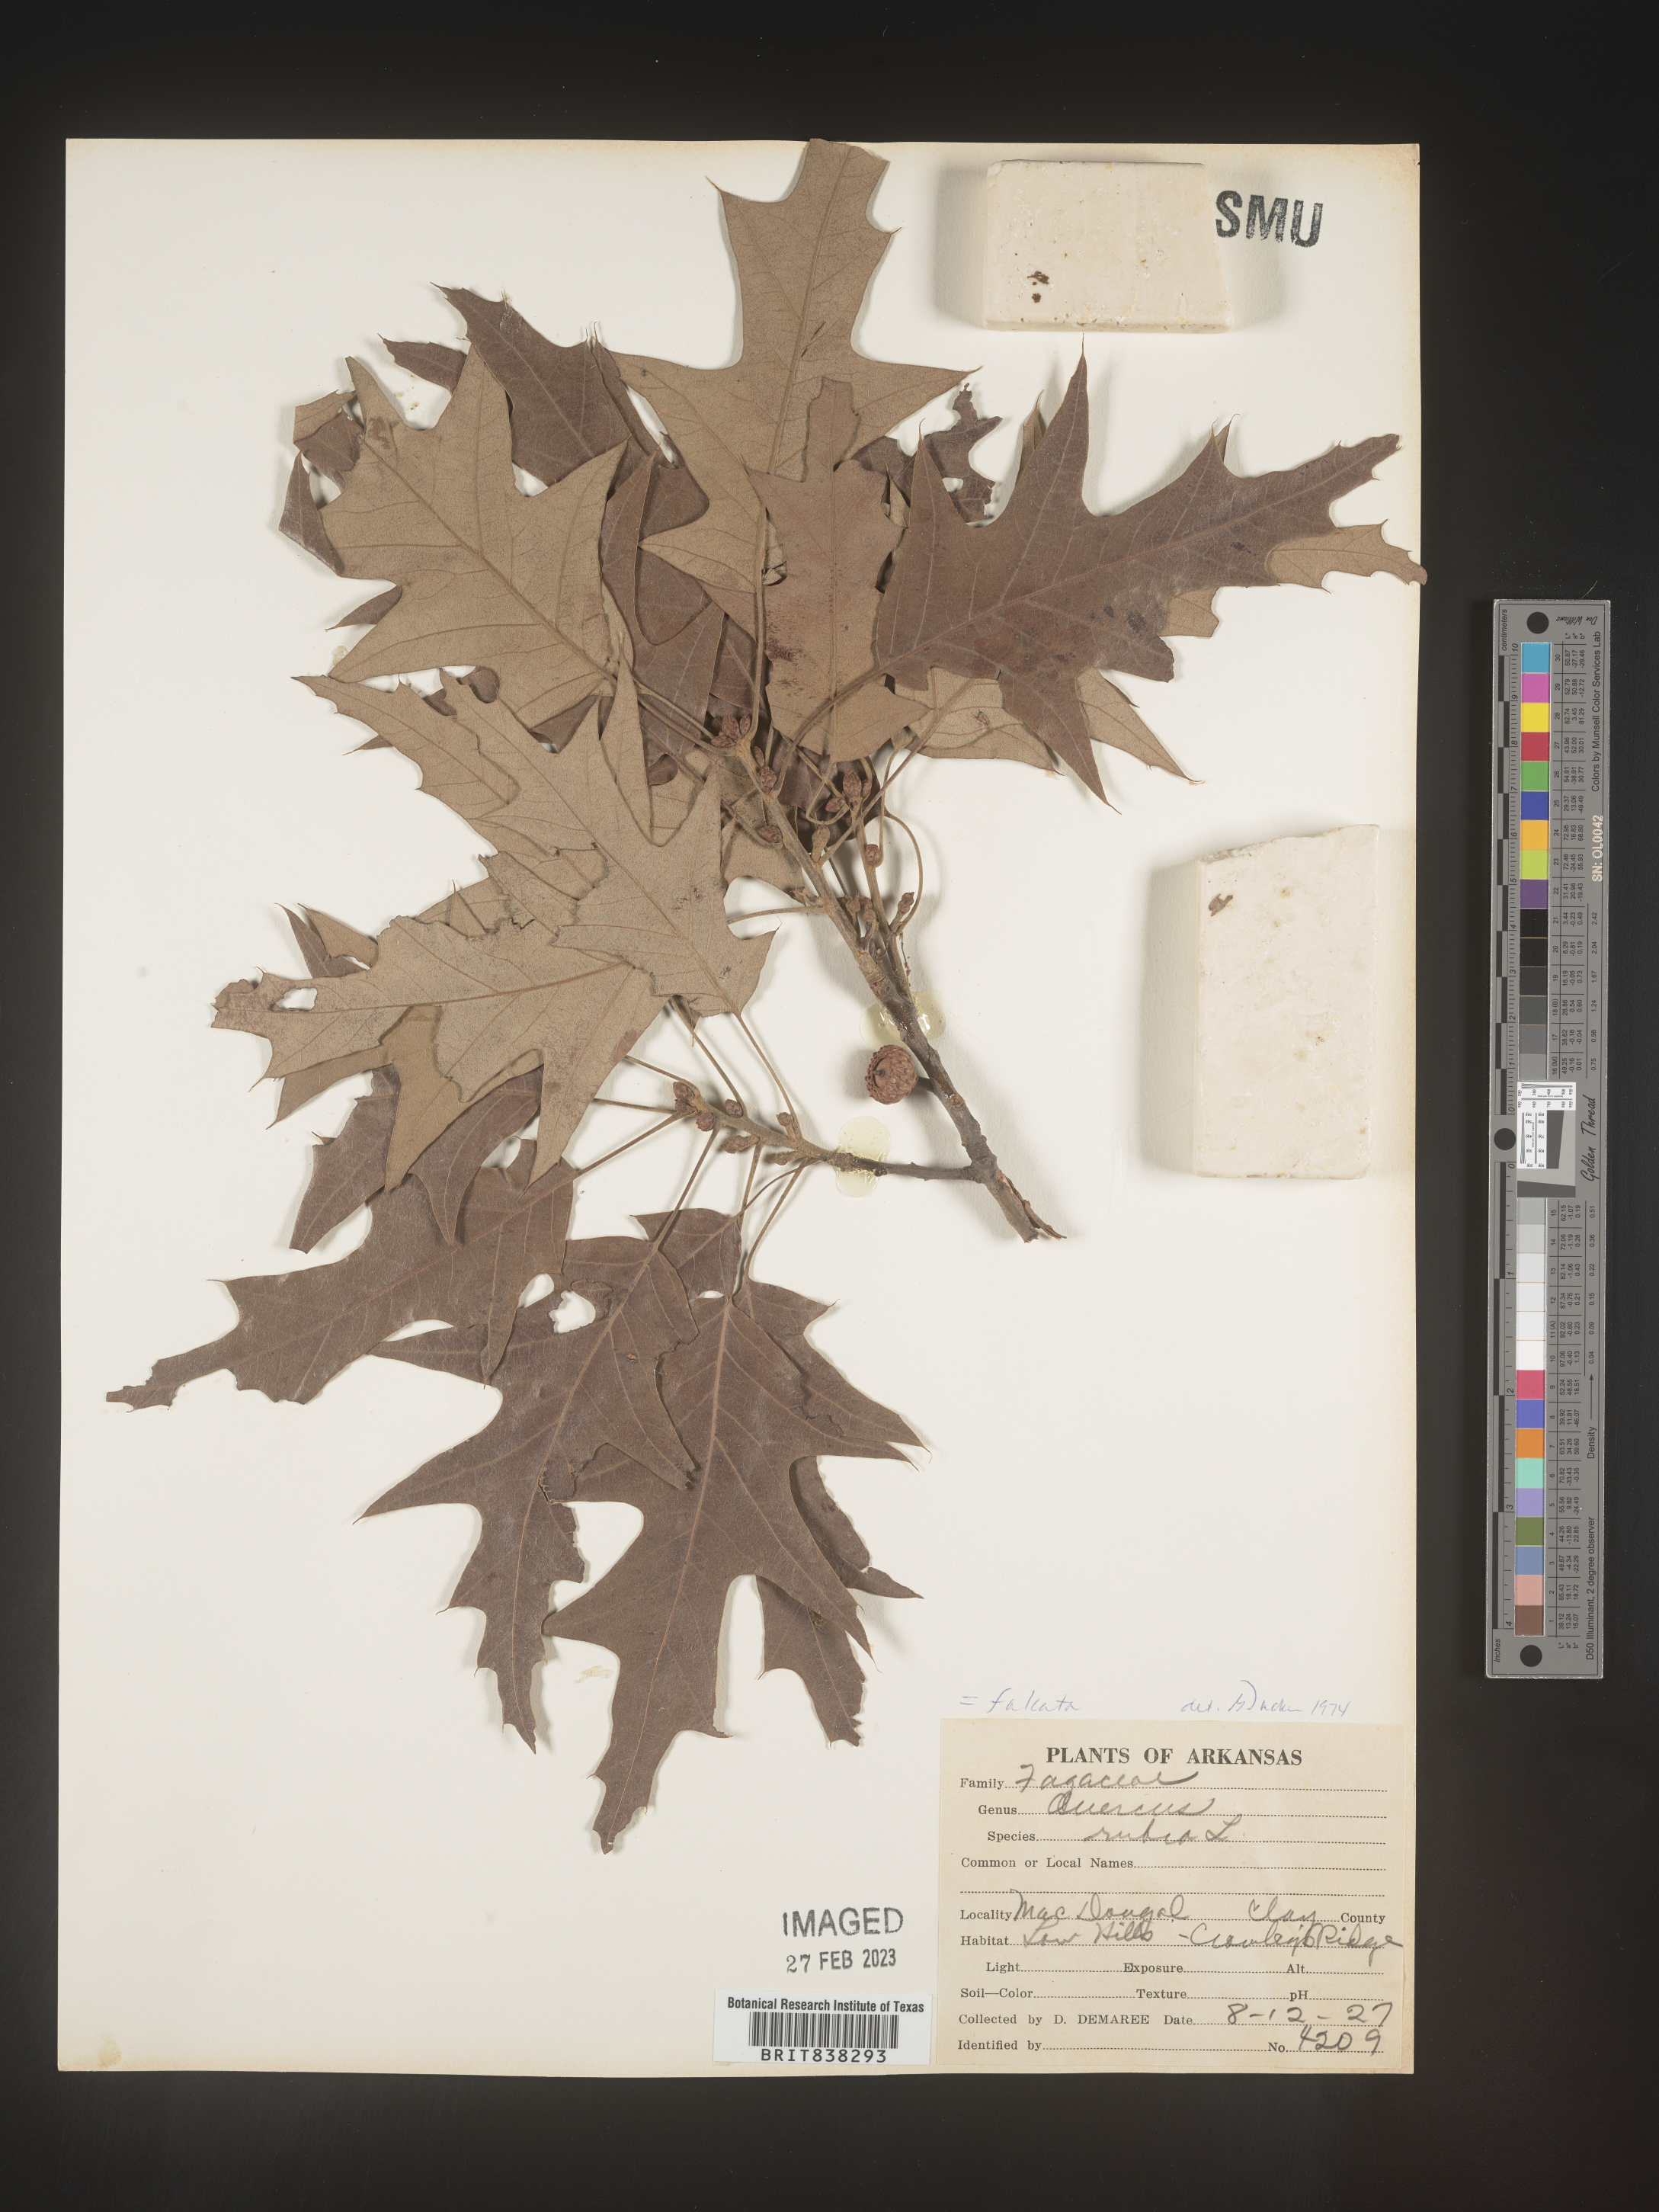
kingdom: Plantae
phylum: Tracheophyta
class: Magnoliopsida
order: Fagales
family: Fagaceae
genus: Quercus
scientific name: Quercus falcata
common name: Southern red oak
